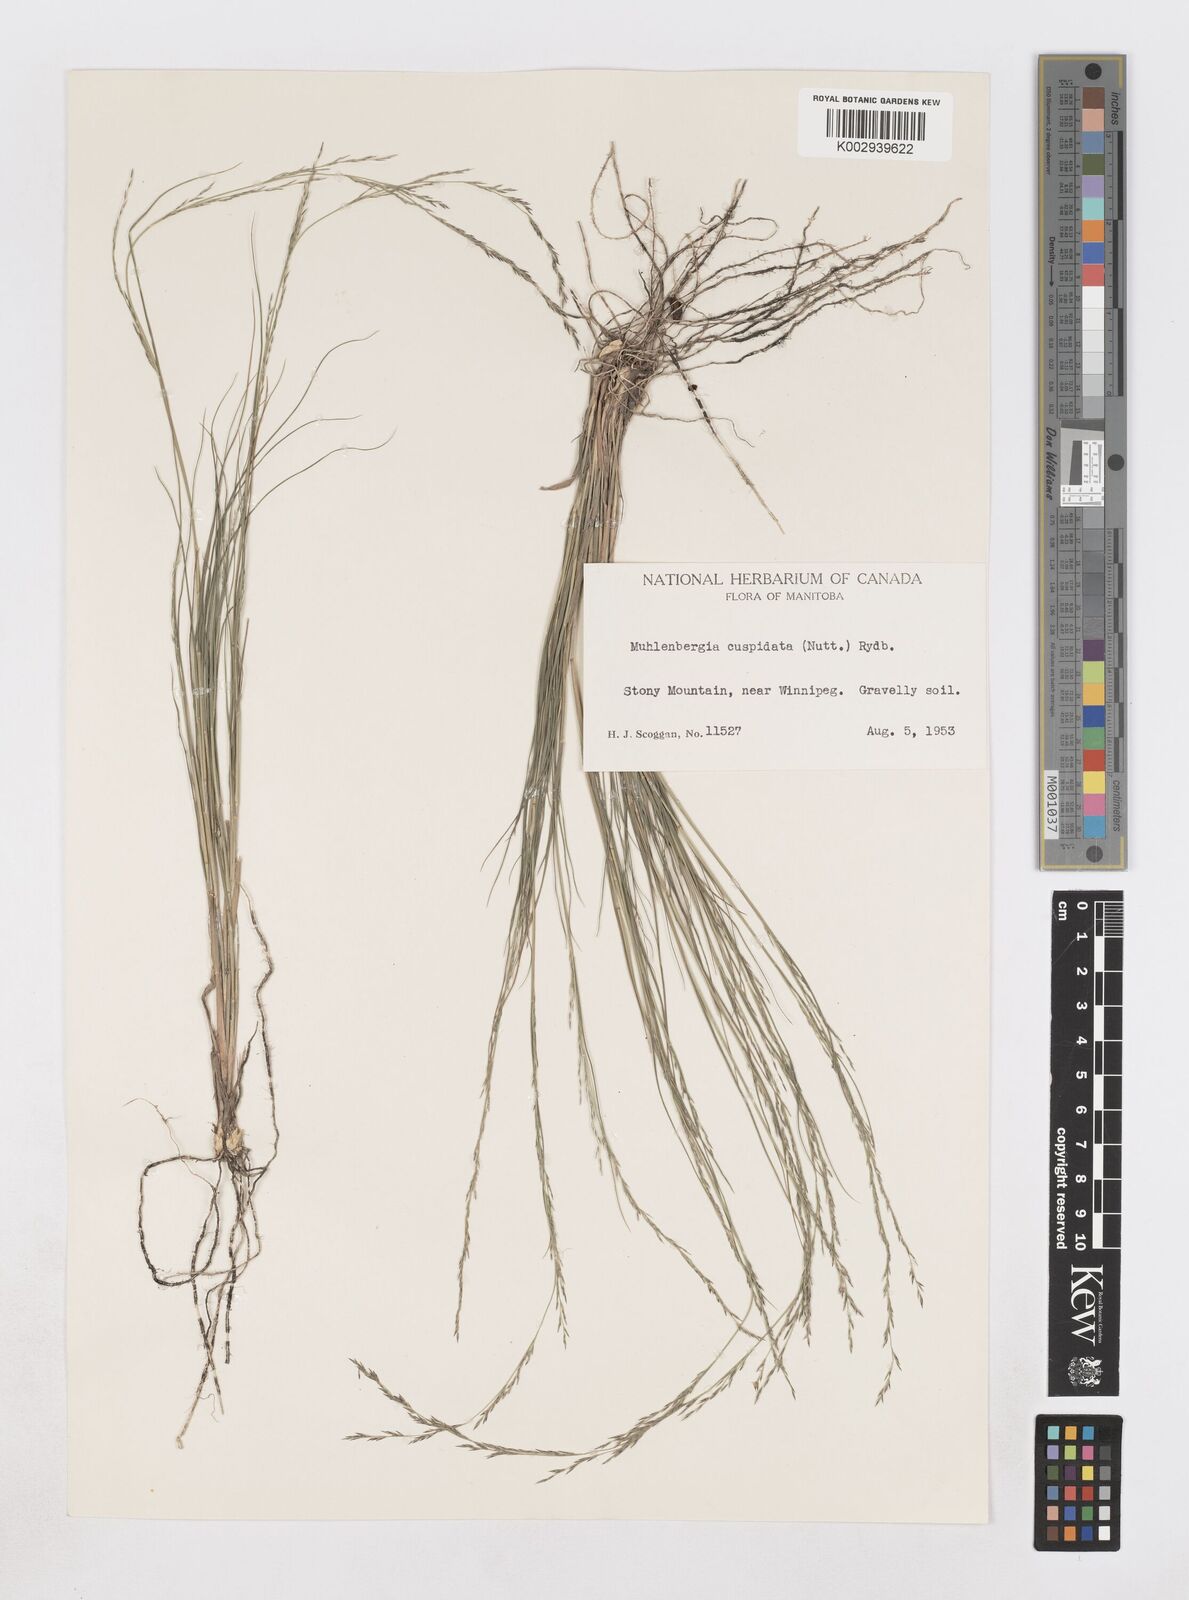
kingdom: Plantae
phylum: Tracheophyta
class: Liliopsida
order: Poales
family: Poaceae
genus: Muhlenbergia
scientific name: Muhlenbergia cuspidata
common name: Plains muhly
